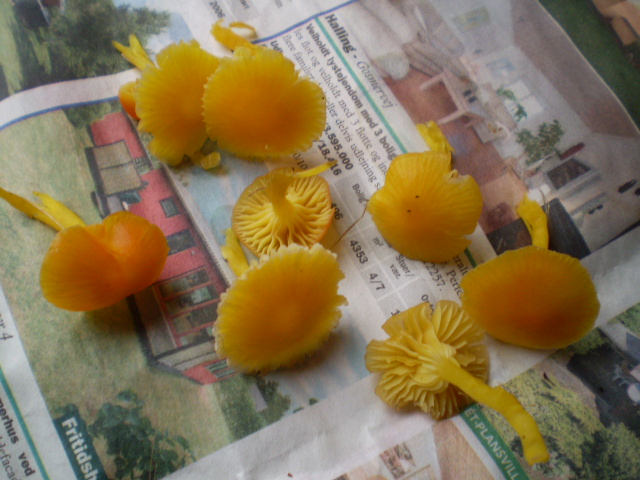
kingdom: Fungi
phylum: Basidiomycota
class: Agaricomycetes
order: Agaricales
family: Hygrophoraceae
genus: Hygrocybe
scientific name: Hygrocybe ceracea
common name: voksgul vokshat
